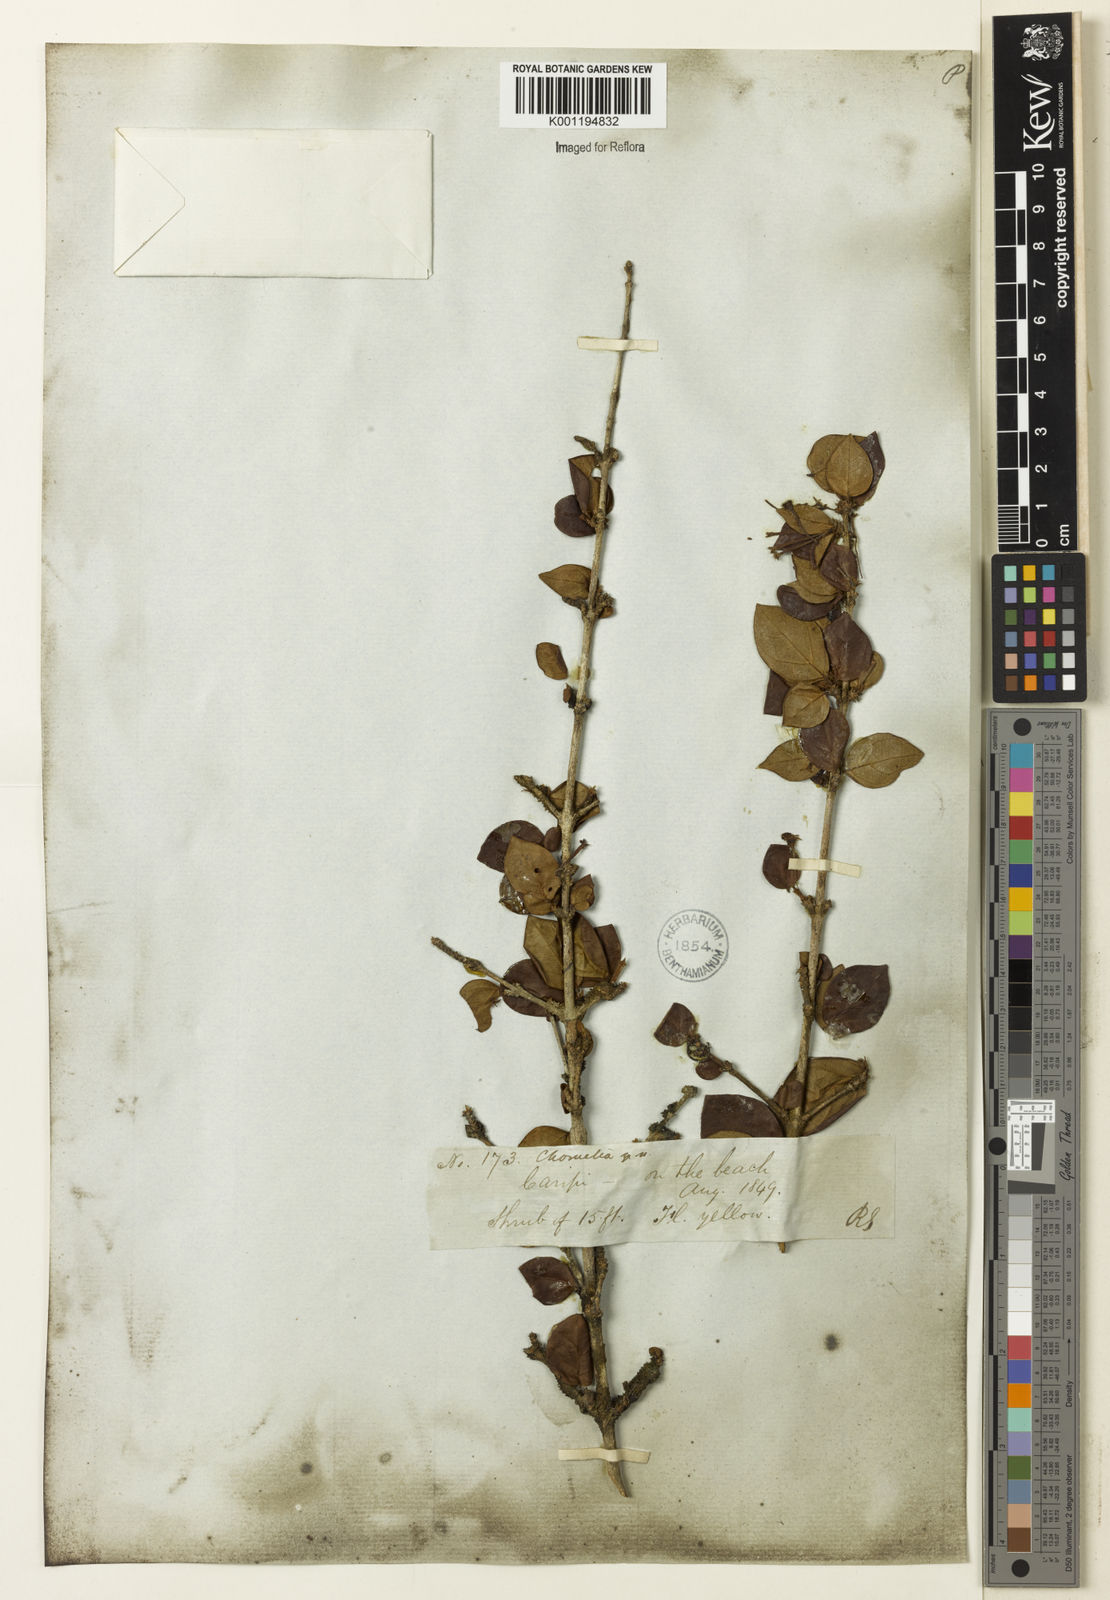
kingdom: Plantae
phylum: Tracheophyta
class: Magnoliopsida
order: Gentianales
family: Rubiaceae
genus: Chomelia
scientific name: Chomelia obtusa
